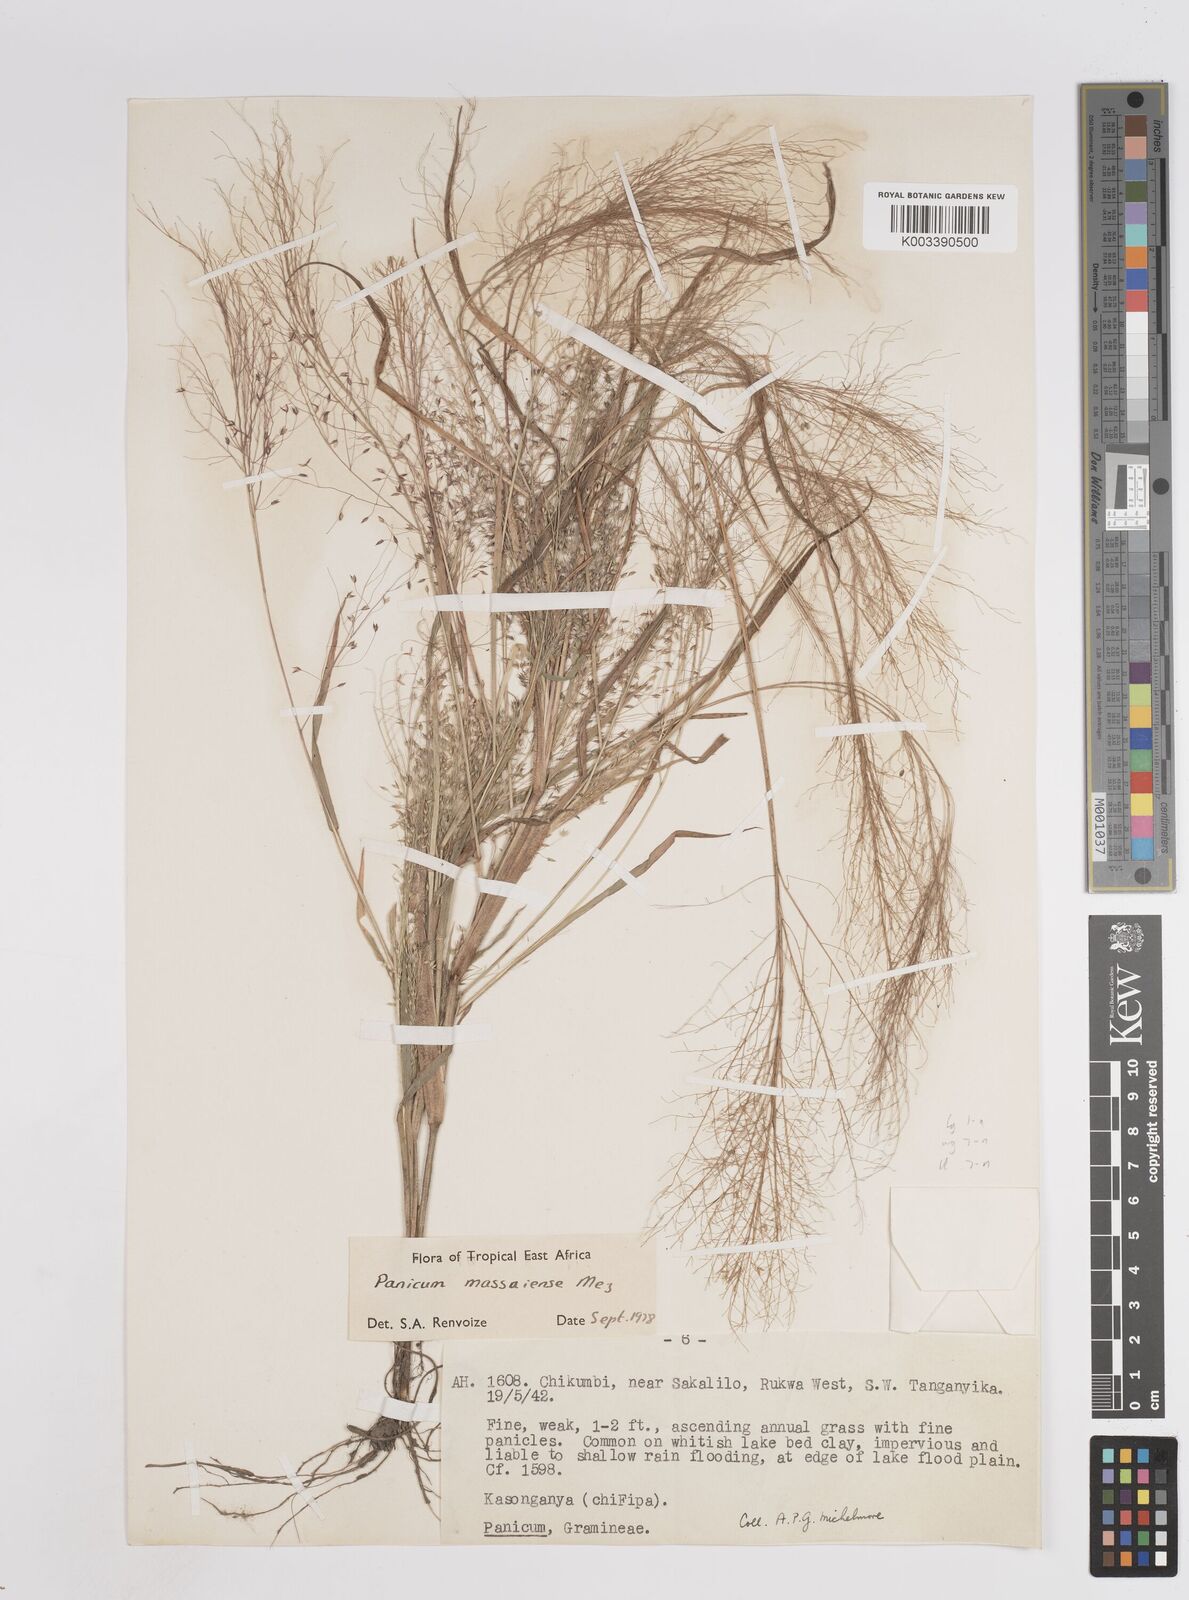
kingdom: Plantae
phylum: Tracheophyta
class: Liliopsida
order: Poales
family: Poaceae
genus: Panicum
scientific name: Panicum massaiense
